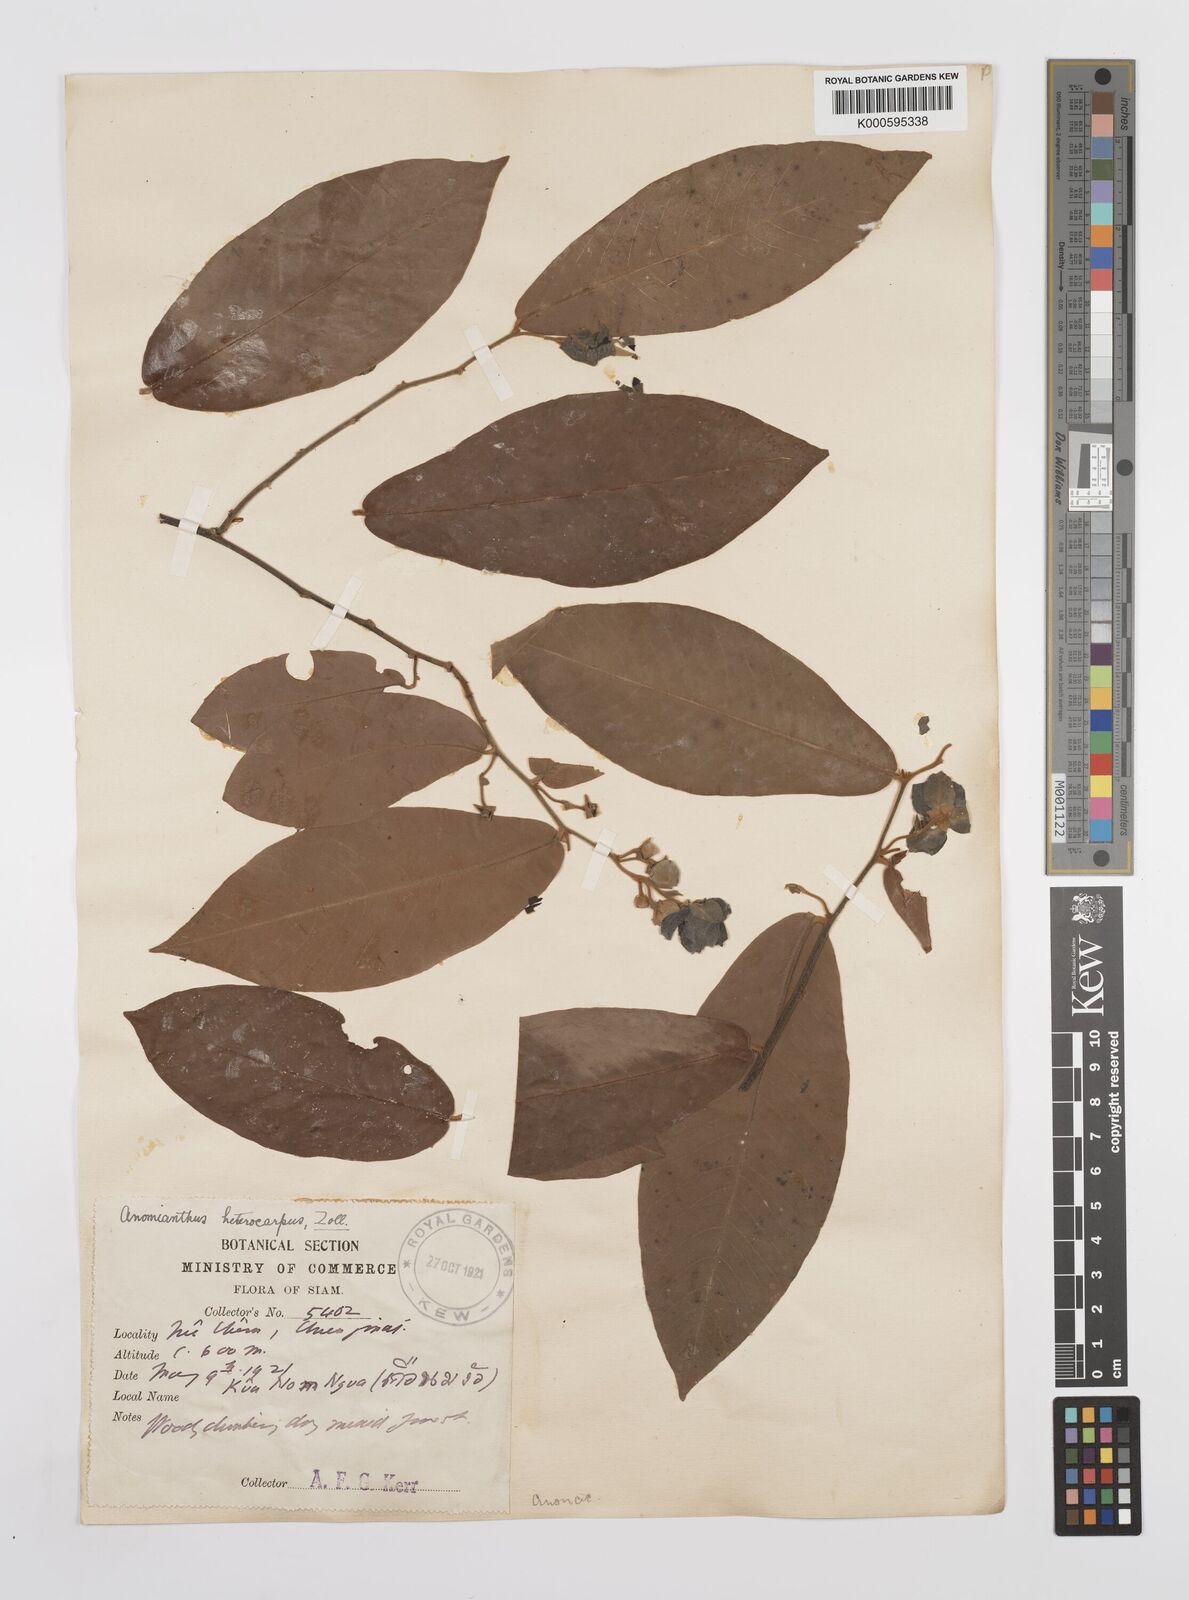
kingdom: Plantae
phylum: Tracheophyta
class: Magnoliopsida
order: Magnoliales
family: Annonaceae
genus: Anomianthus
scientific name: Anomianthus heterocarpus
